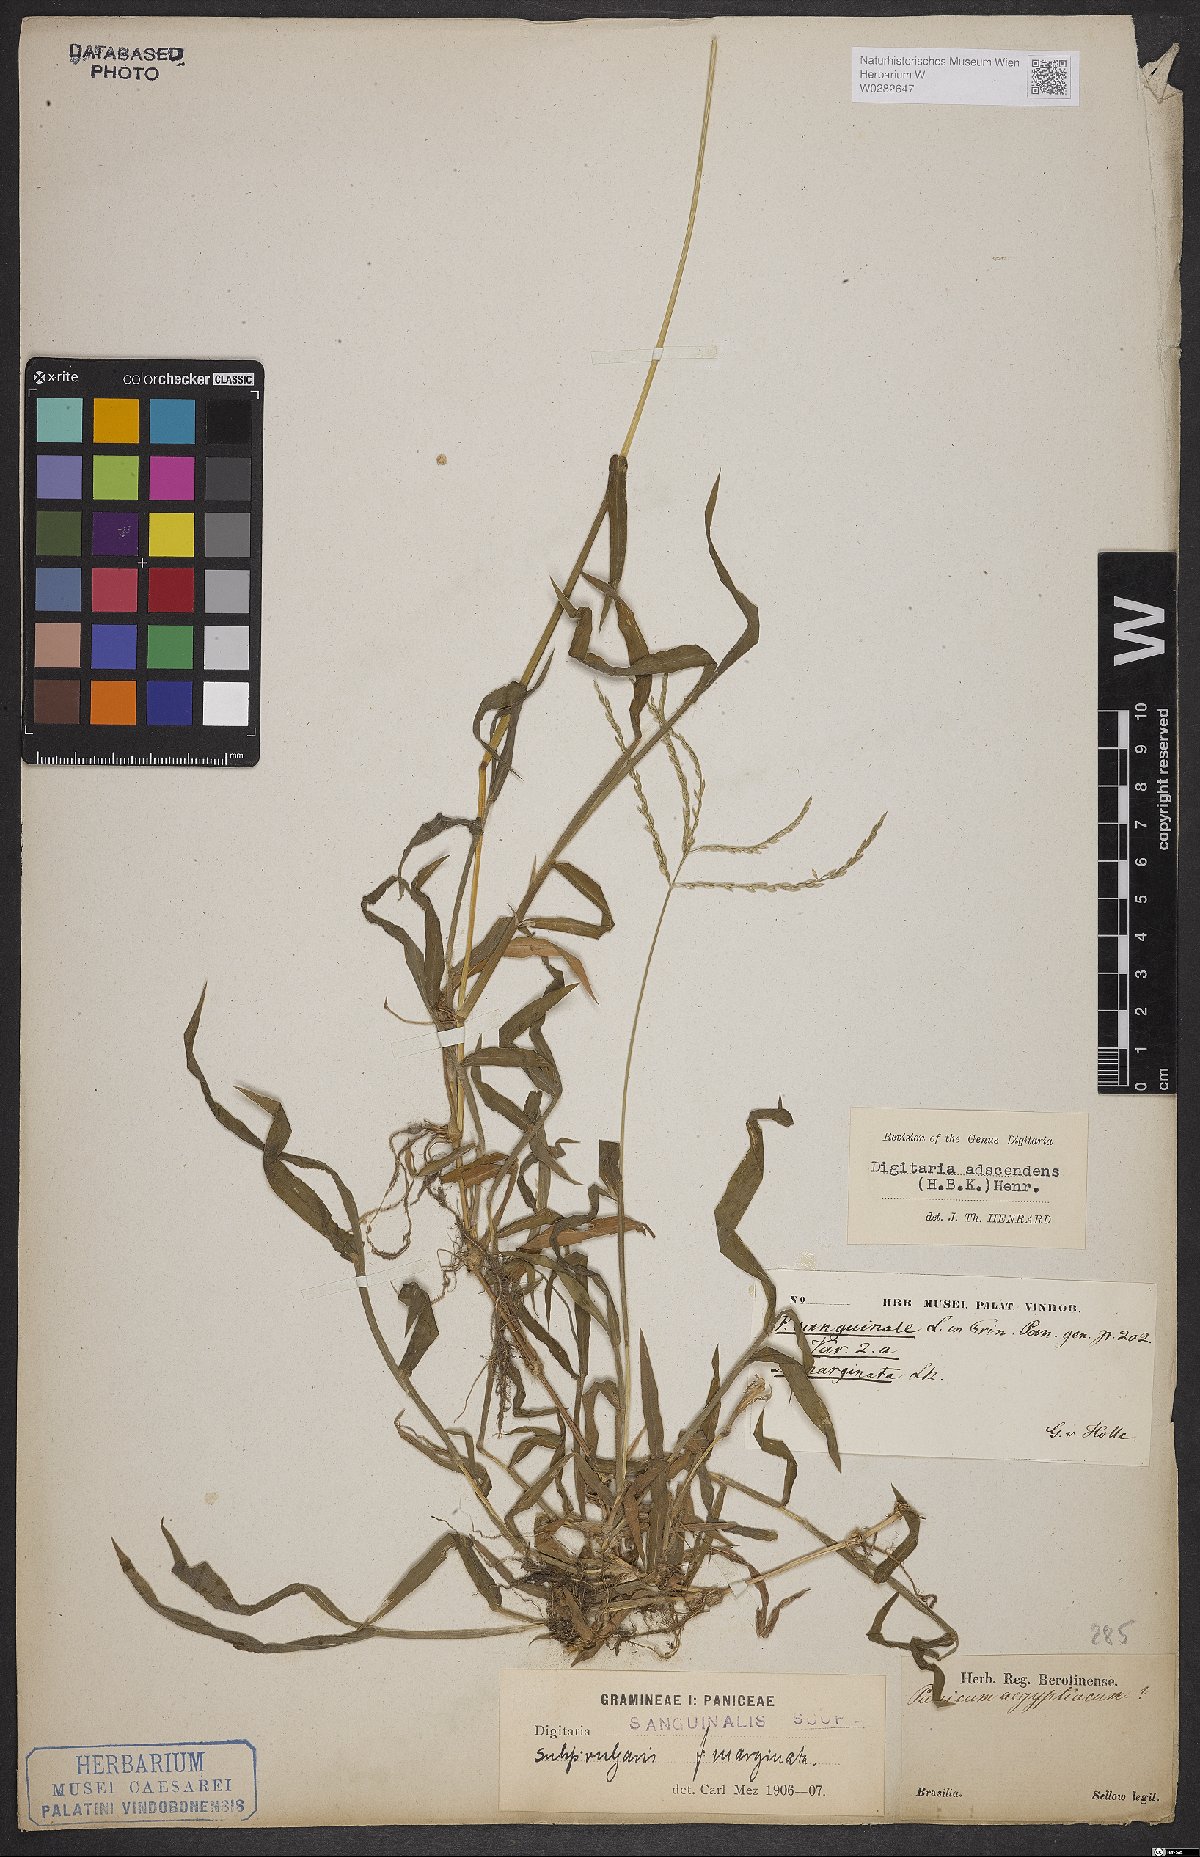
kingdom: Plantae
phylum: Tracheophyta
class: Liliopsida
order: Poales
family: Poaceae
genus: Digitaria
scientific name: Digitaria ciliaris
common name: Tropical finger-grass
